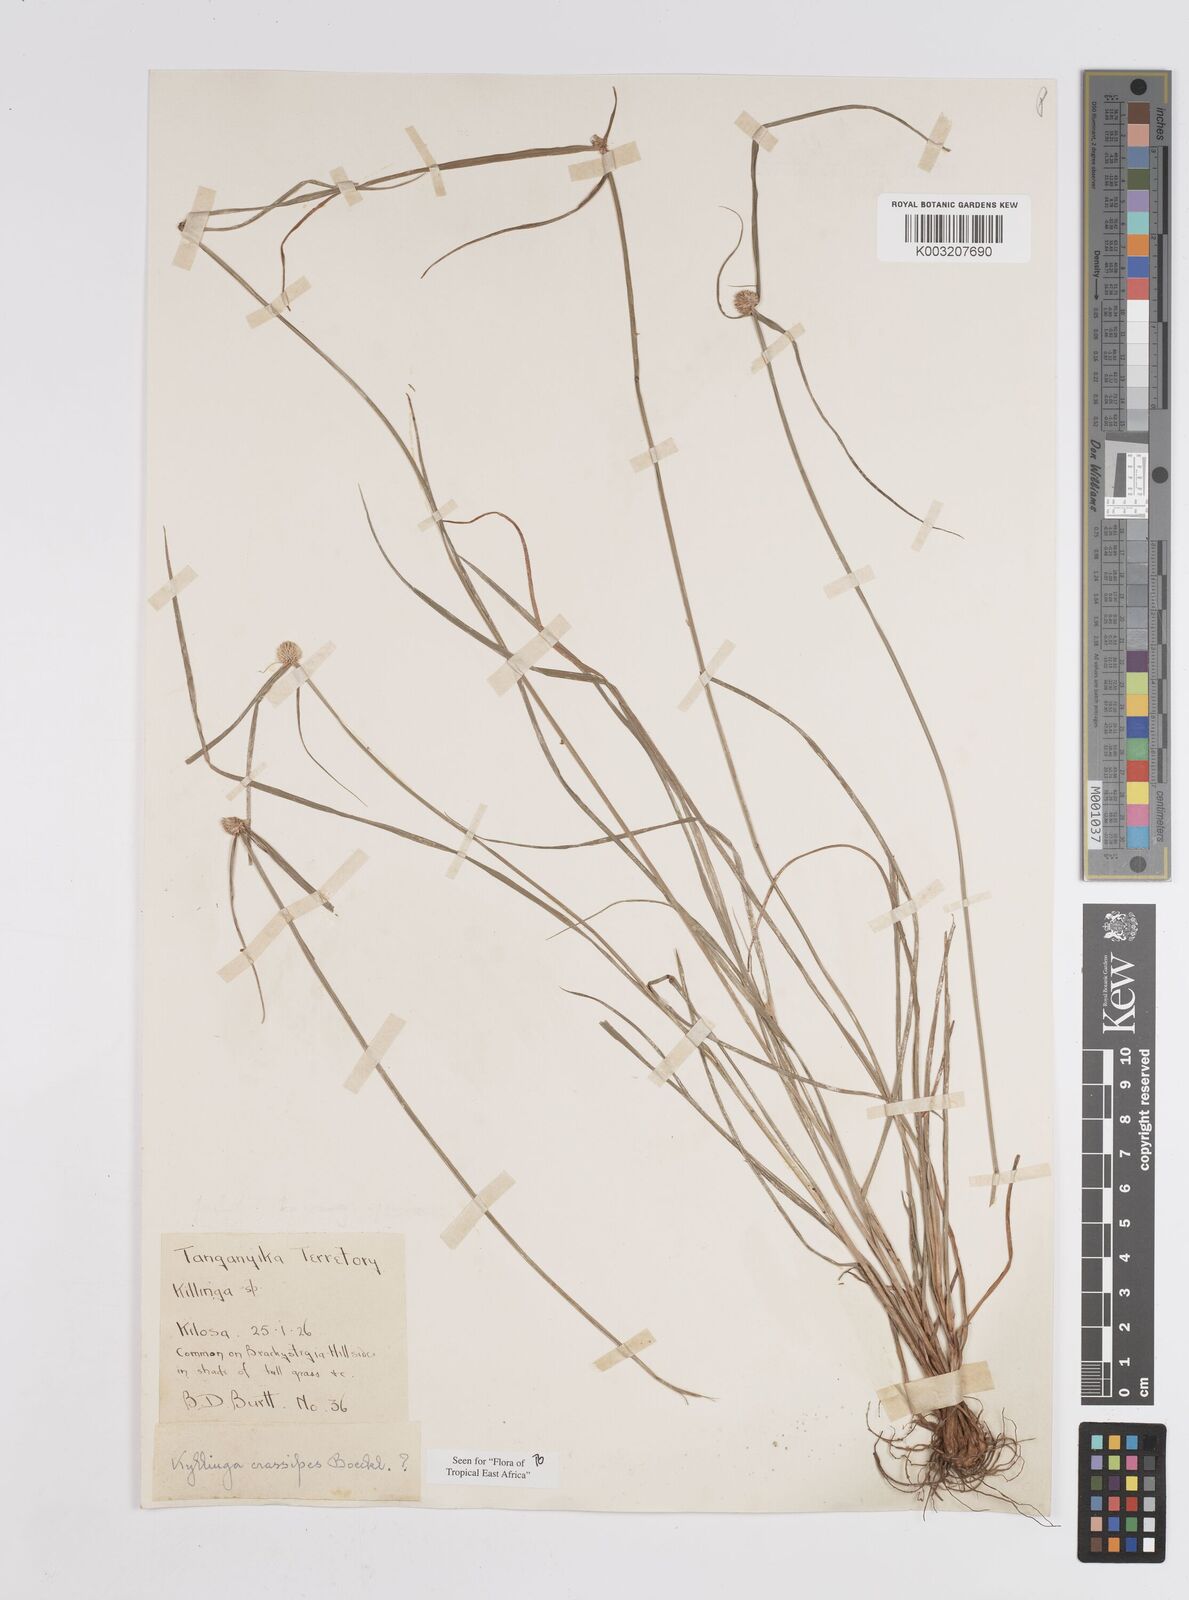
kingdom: Plantae
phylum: Tracheophyta
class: Liliopsida
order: Poales
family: Cyperaceae
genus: Cyperus
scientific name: Cyperus crassipes
